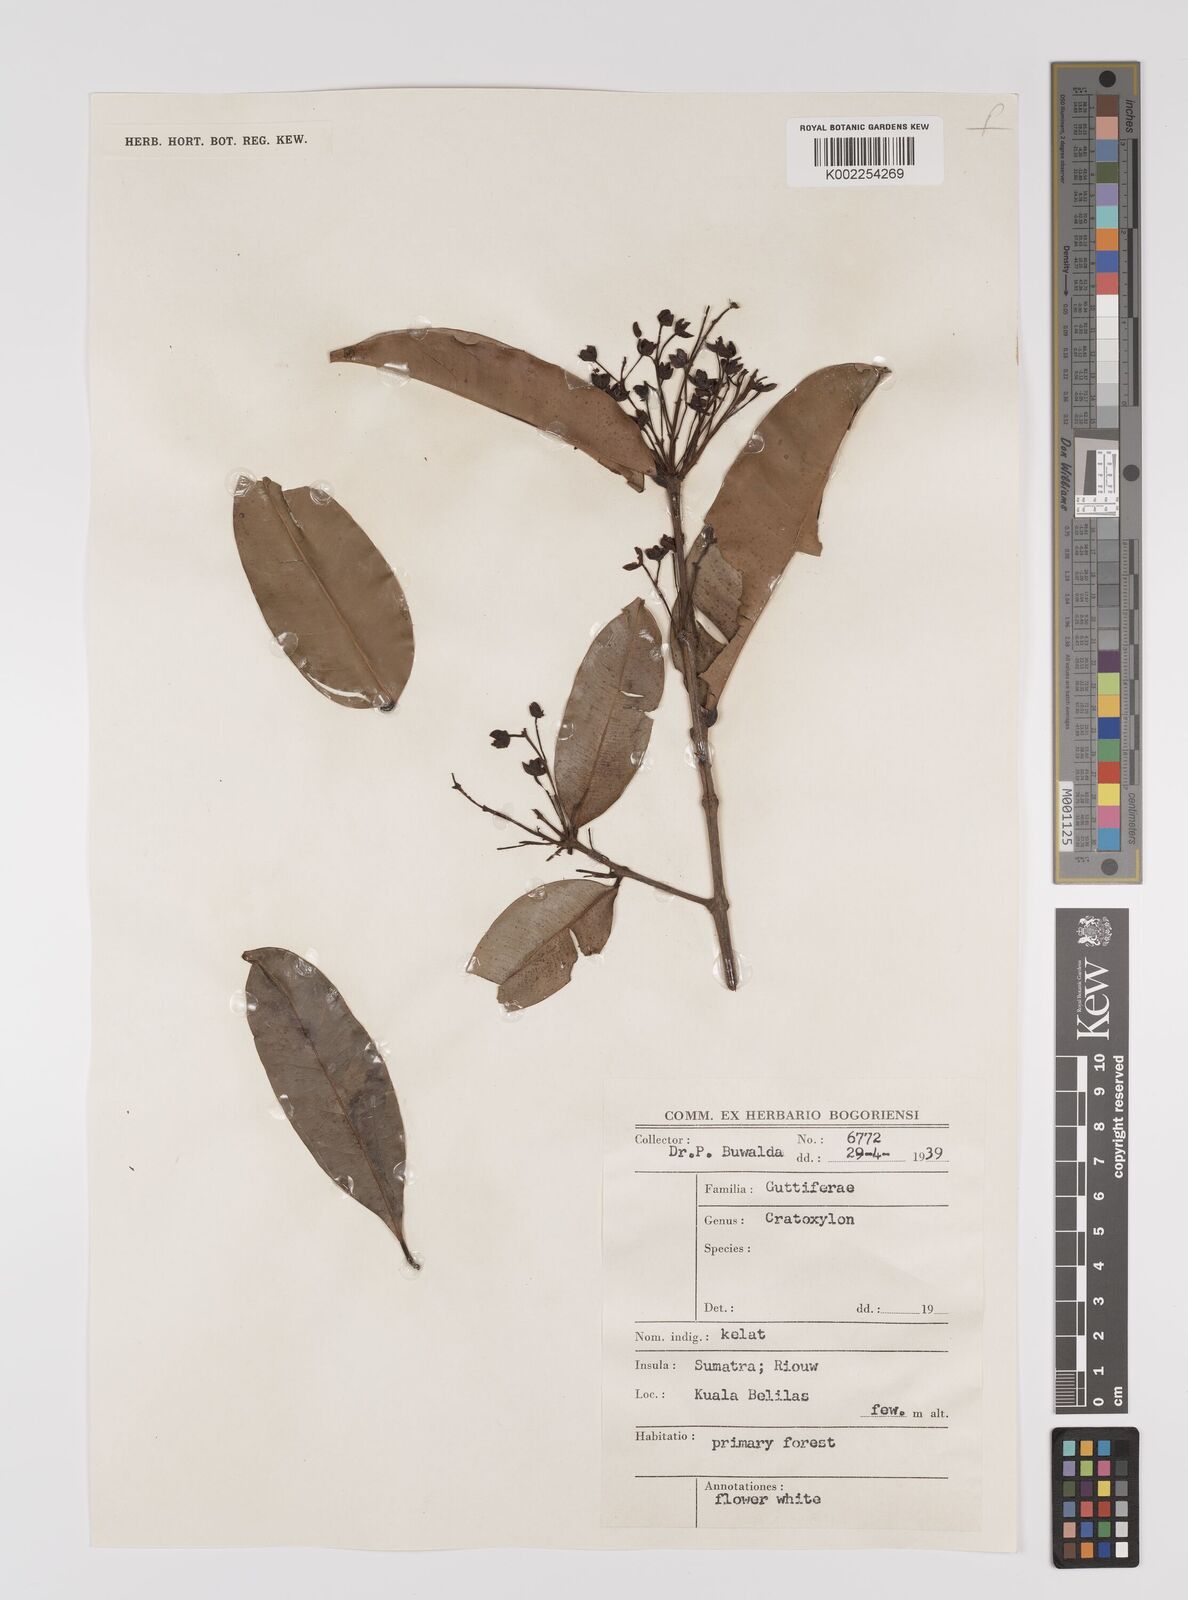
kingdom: Plantae
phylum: Tracheophyta
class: Magnoliopsida
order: Malpighiales
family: Hypericaceae
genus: Cratoxylum
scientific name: Cratoxylum
